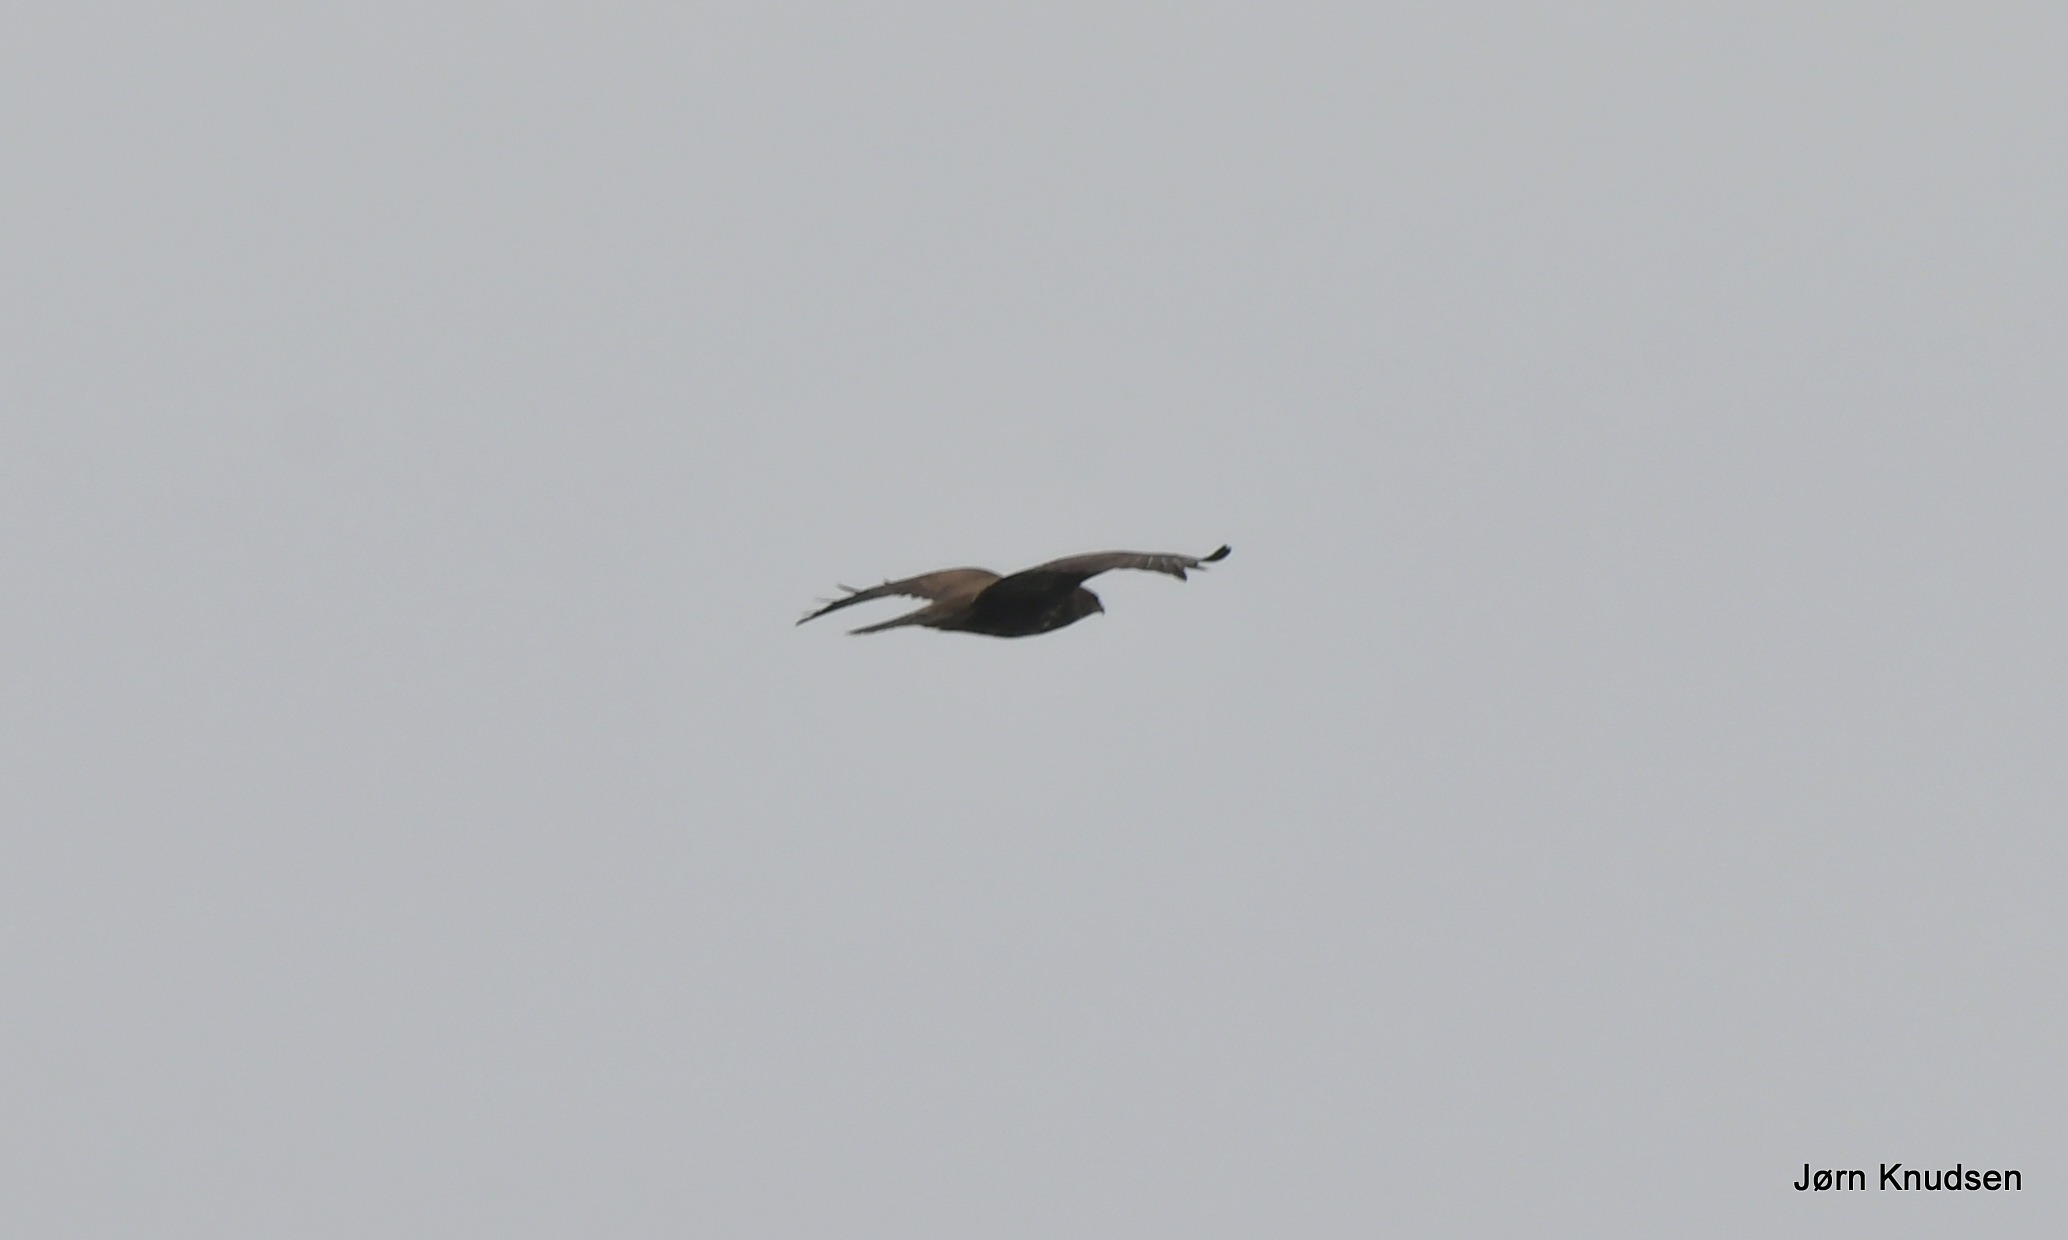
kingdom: Animalia
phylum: Chordata
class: Aves
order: Accipitriformes
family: Accipitridae
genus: Buteo
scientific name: Buteo buteo
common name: Musvåge
